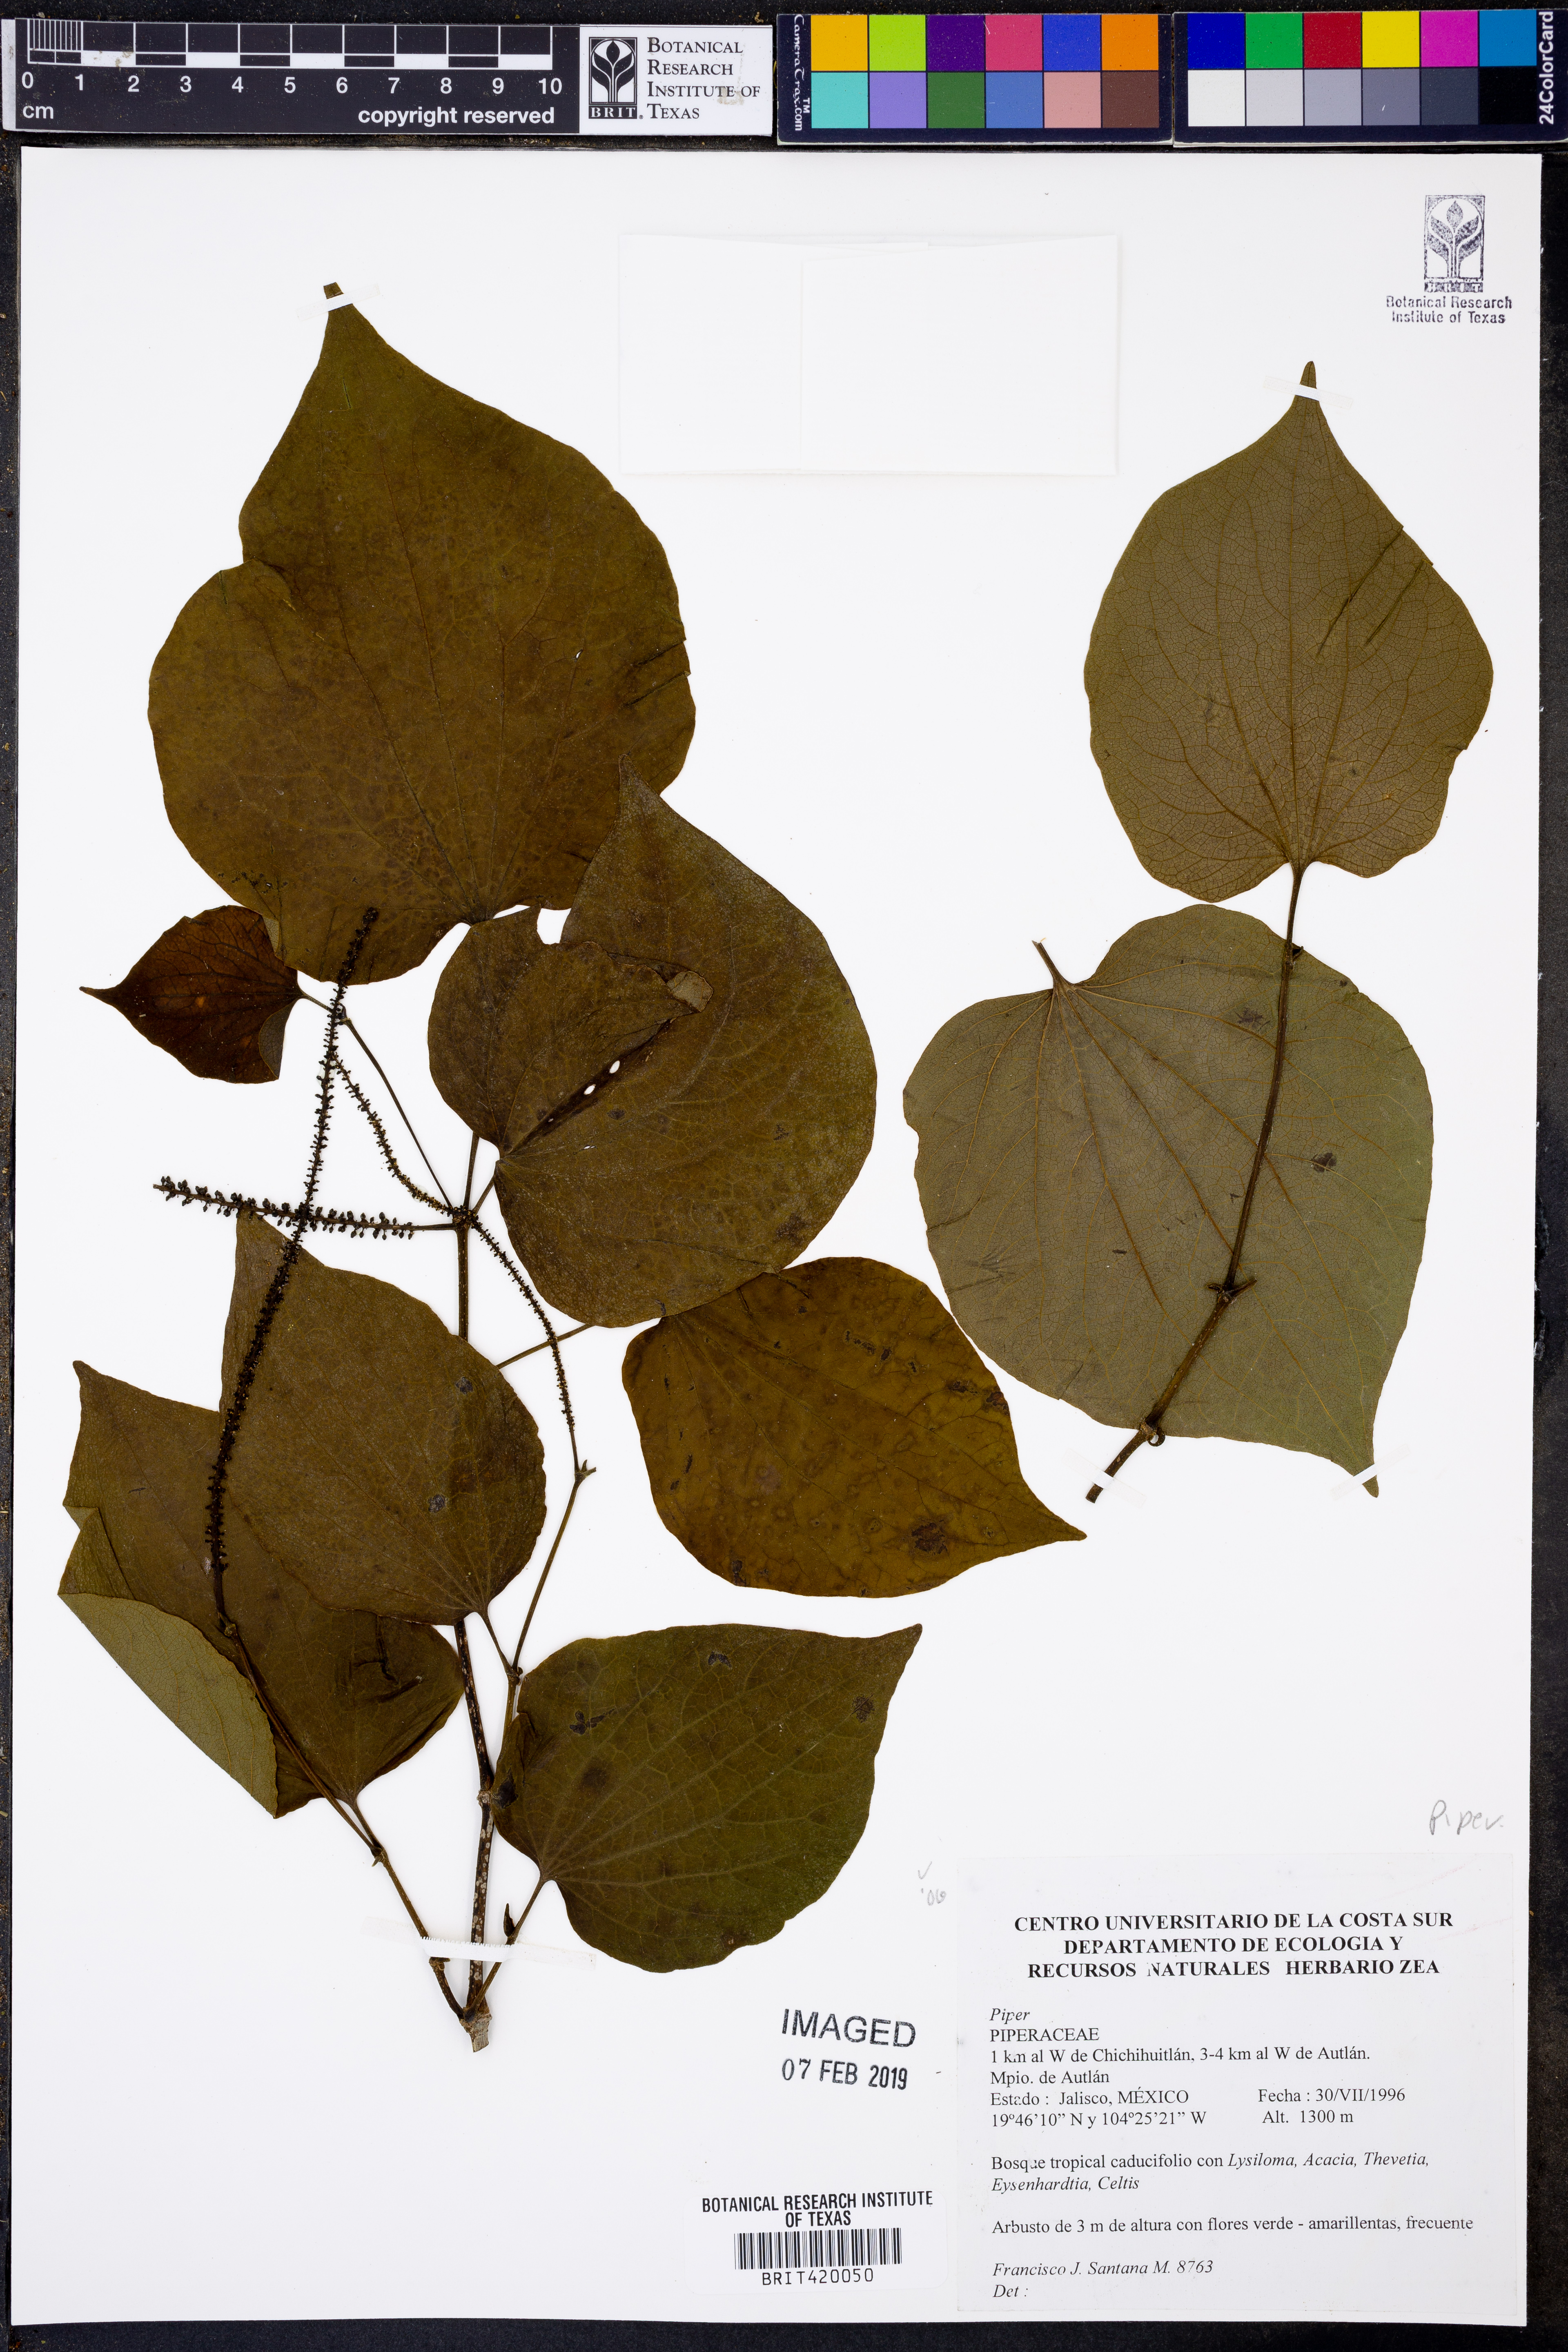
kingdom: Plantae
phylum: Tracheophyta
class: Magnoliopsida
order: Piperales
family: Piperaceae
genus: Piper
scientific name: Piper
